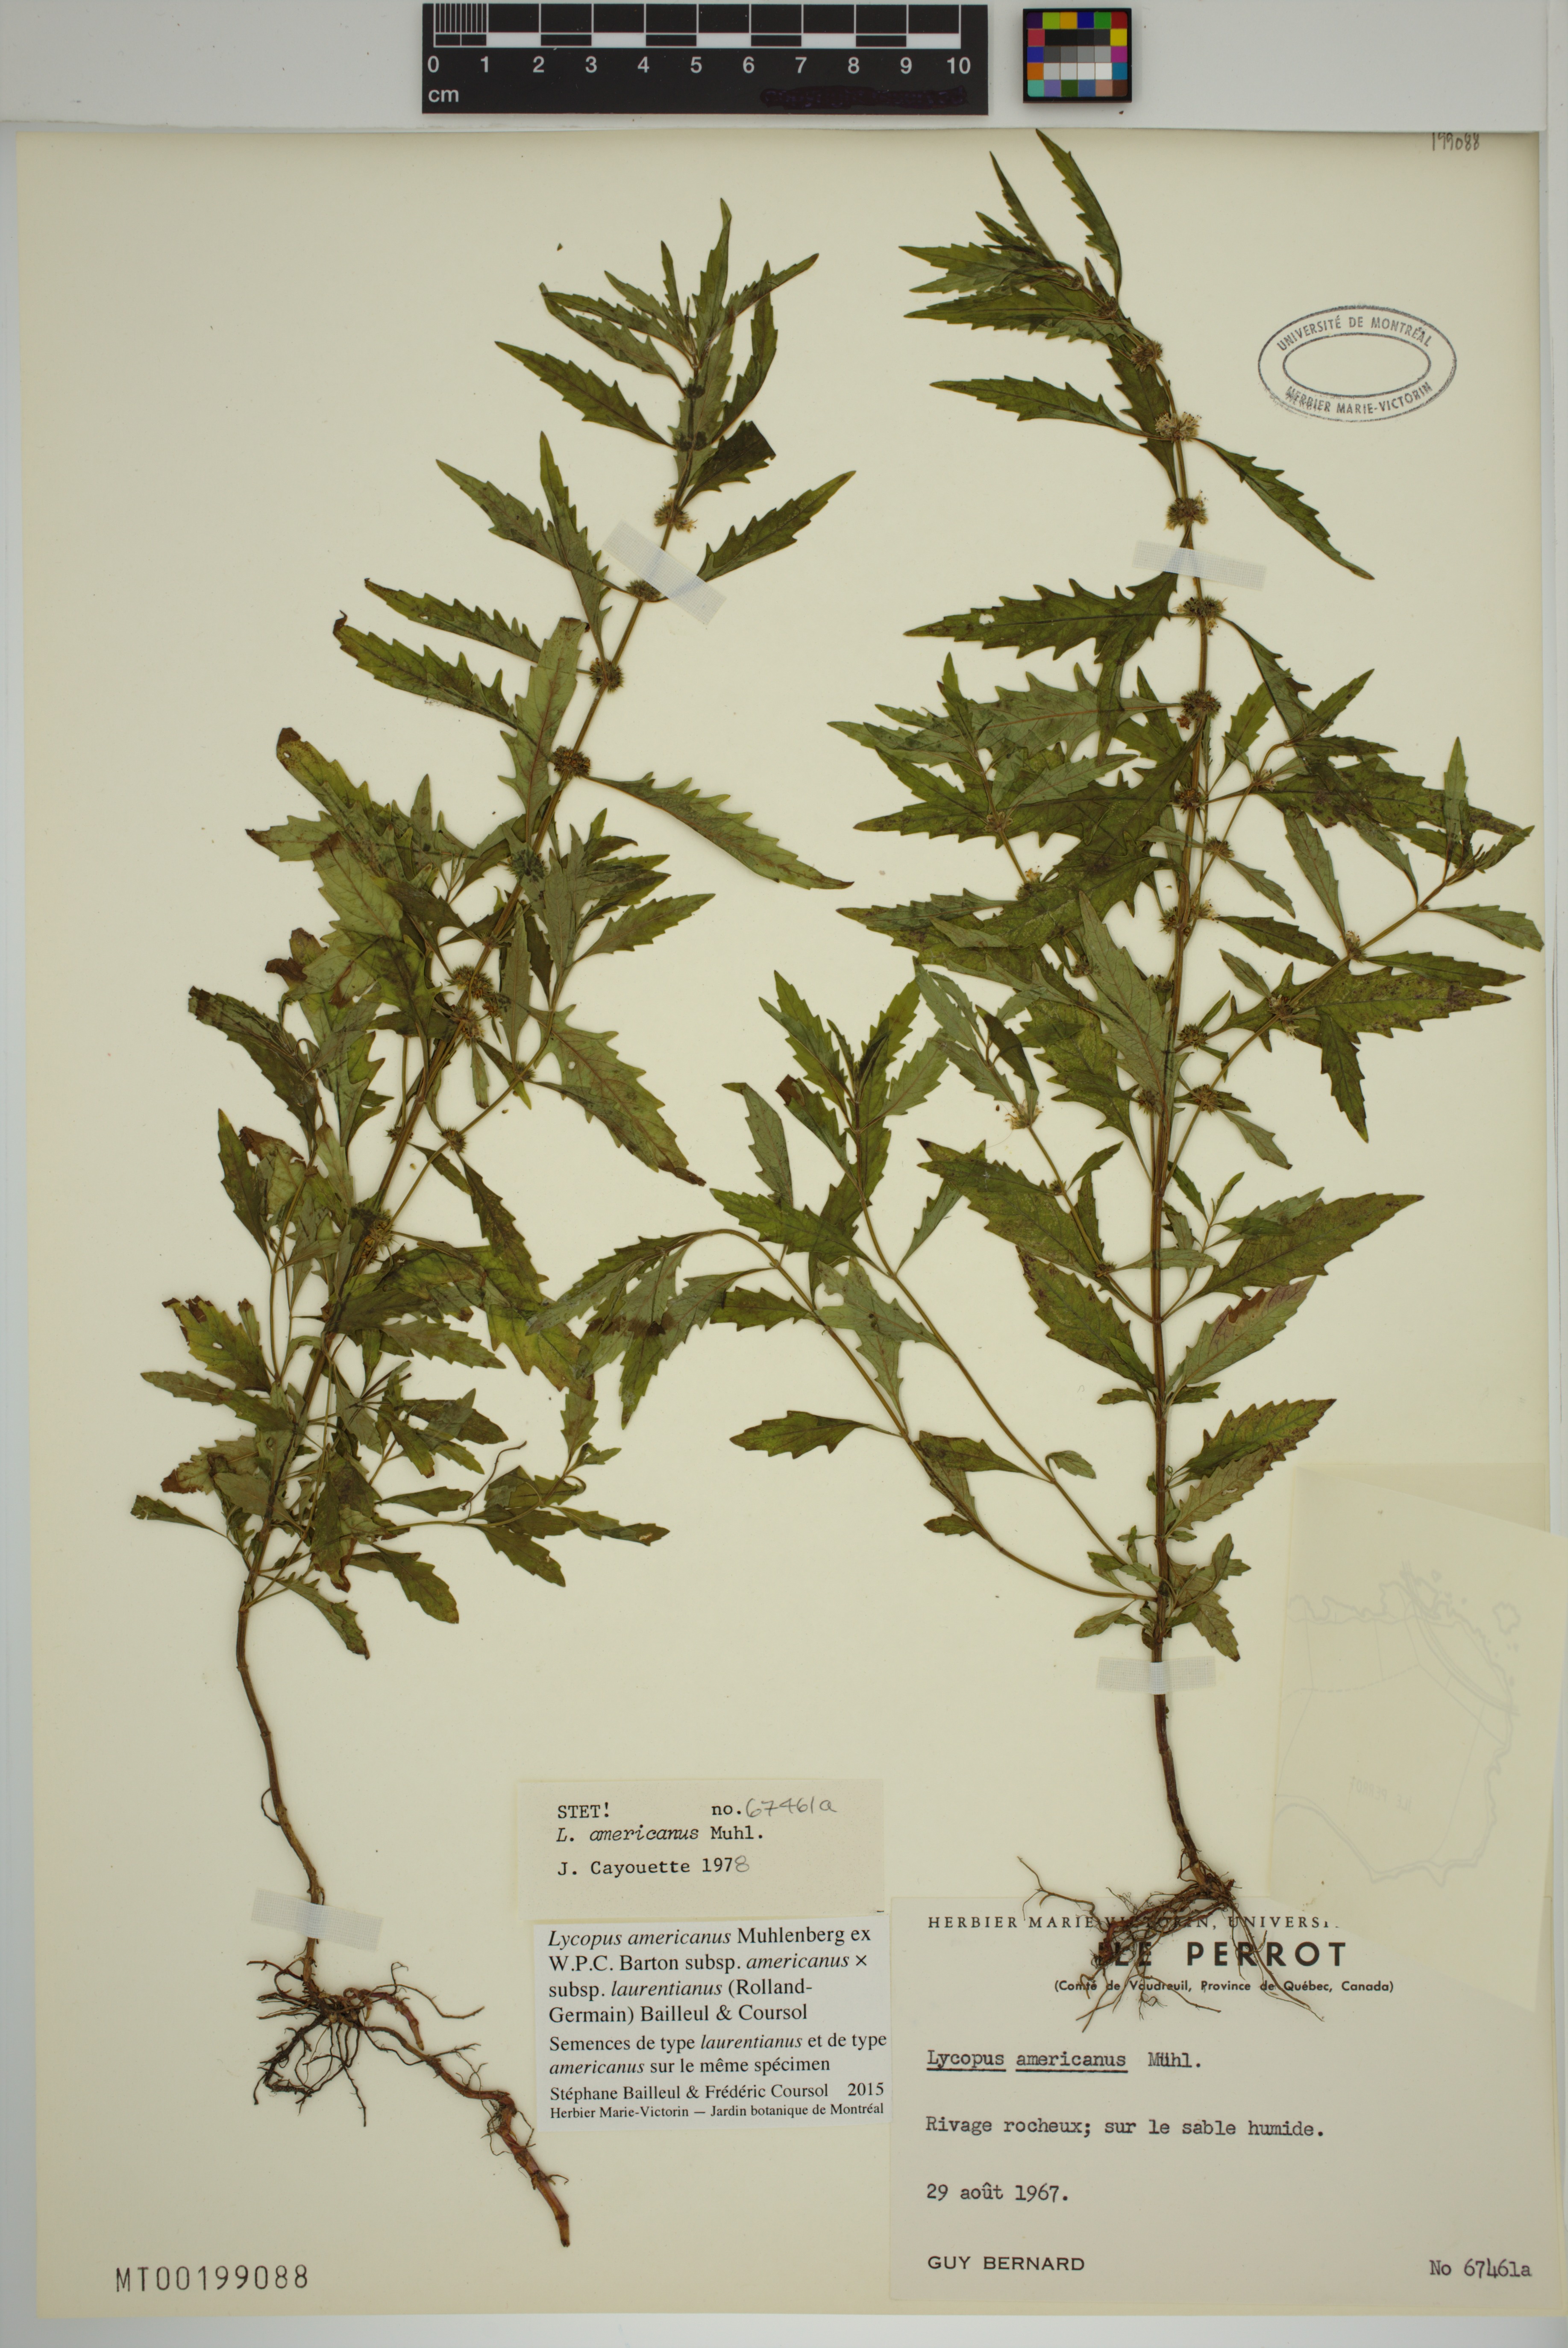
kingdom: Plantae
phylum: Tracheophyta
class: Magnoliopsida
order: Lamiales
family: Lamiaceae
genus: Lycopus
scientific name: Lycopus americanus
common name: American bugleweed
